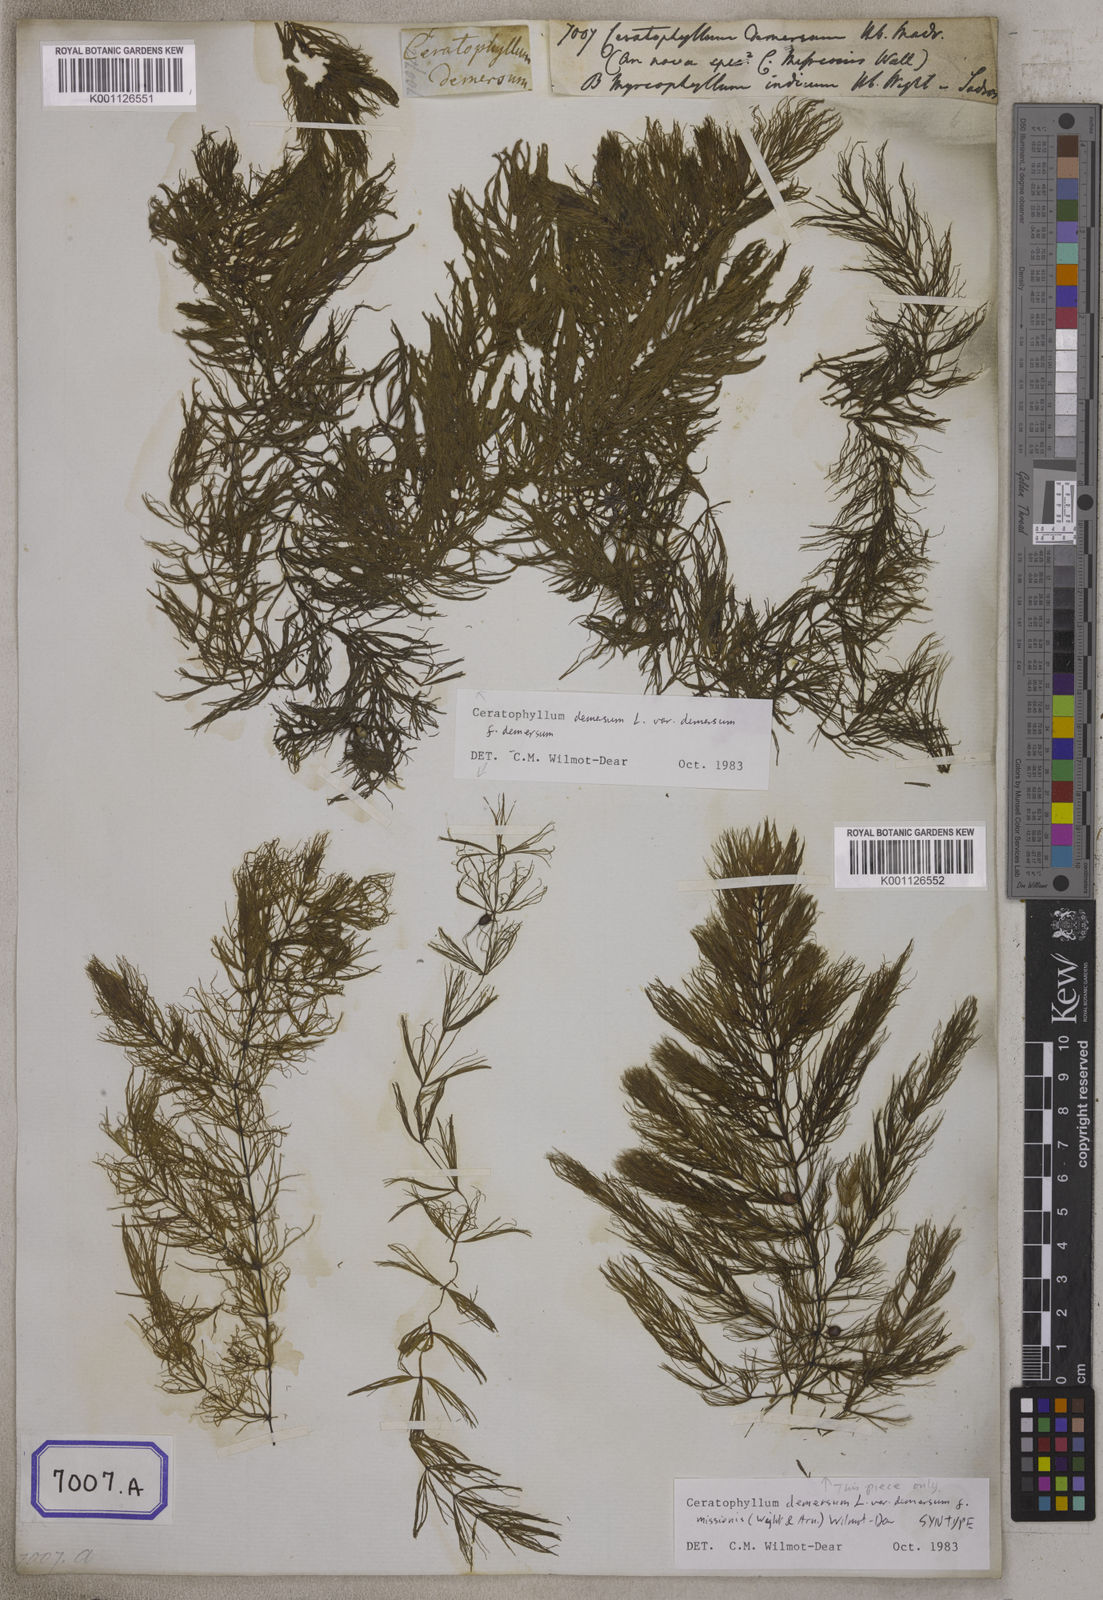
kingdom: Plantae
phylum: Tracheophyta
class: Magnoliopsida
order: Ceratophyllales
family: Ceratophyllaceae
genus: Ceratophyllum
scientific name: Ceratophyllum demersum
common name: Rigid hornwort
